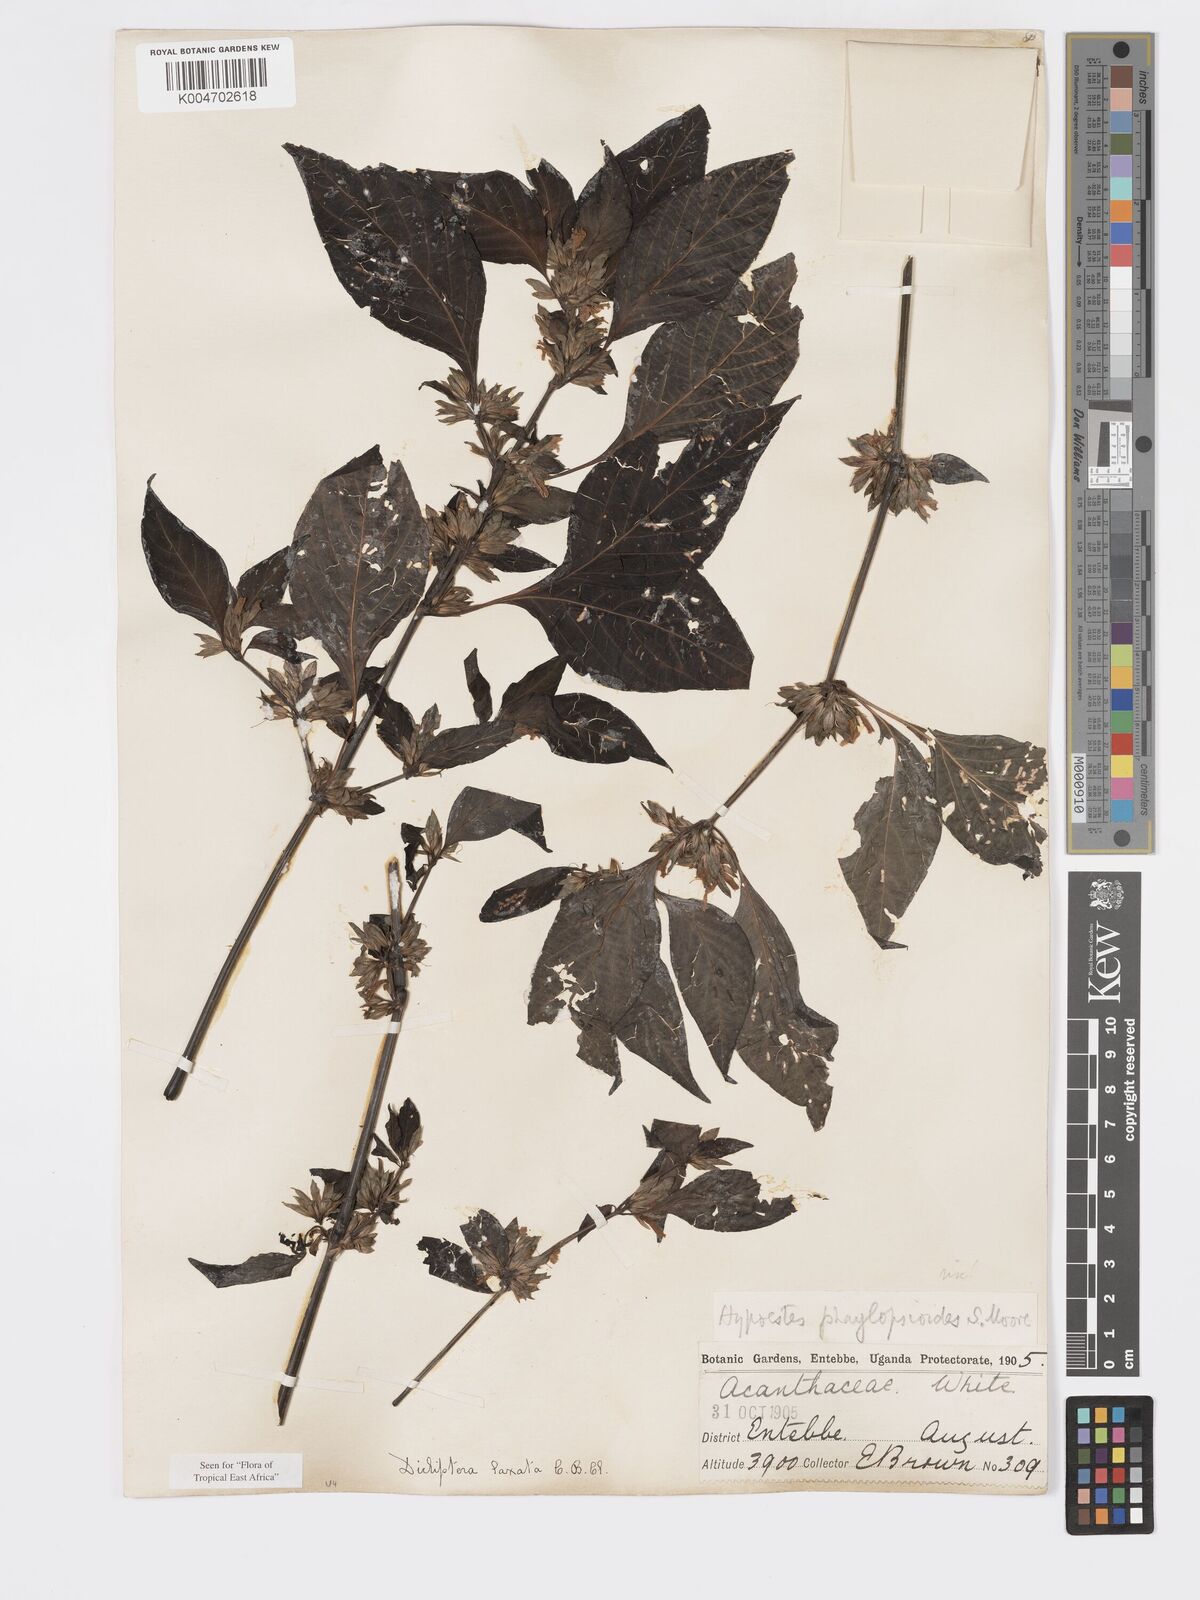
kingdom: Plantae
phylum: Tracheophyta
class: Magnoliopsida
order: Lamiales
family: Acanthaceae
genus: Dicliptera
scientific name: Dicliptera laxata
